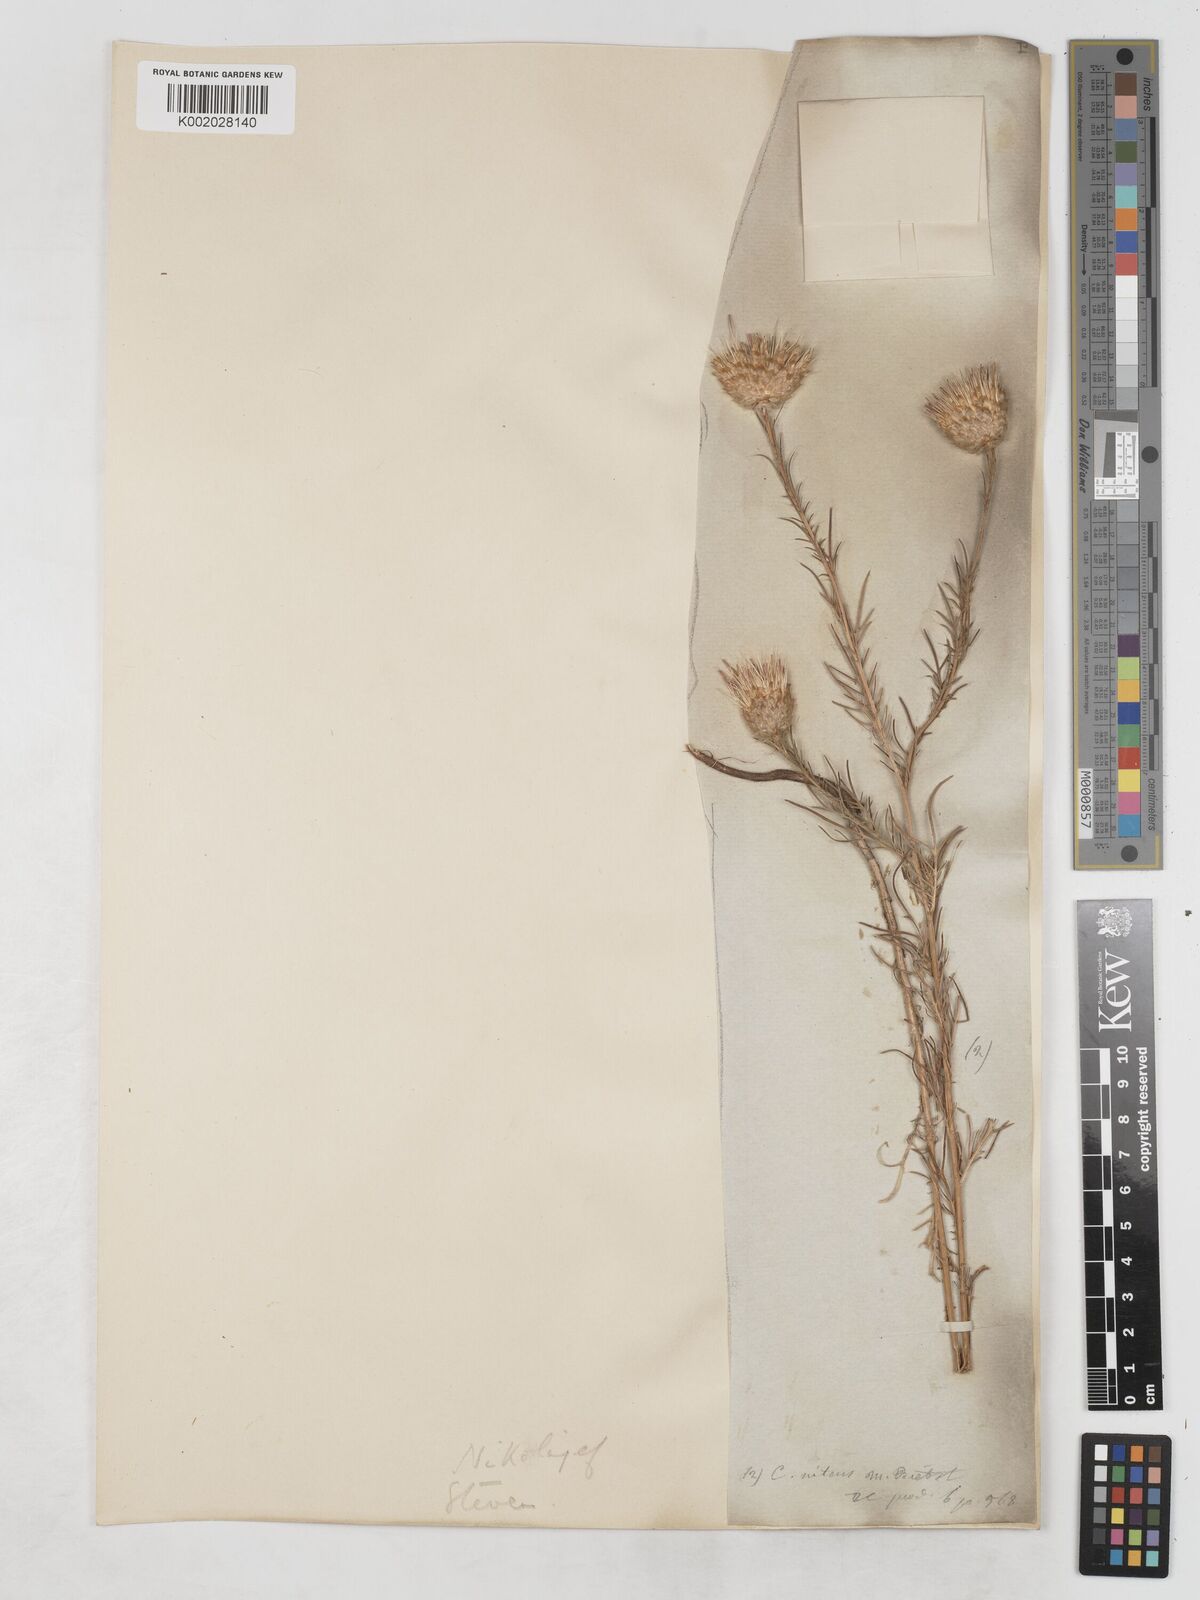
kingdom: Plantae
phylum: Tracheophyta
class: Magnoliopsida
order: Asterales
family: Asteraceae
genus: Callicephalus
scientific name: Callicephalus nitens
